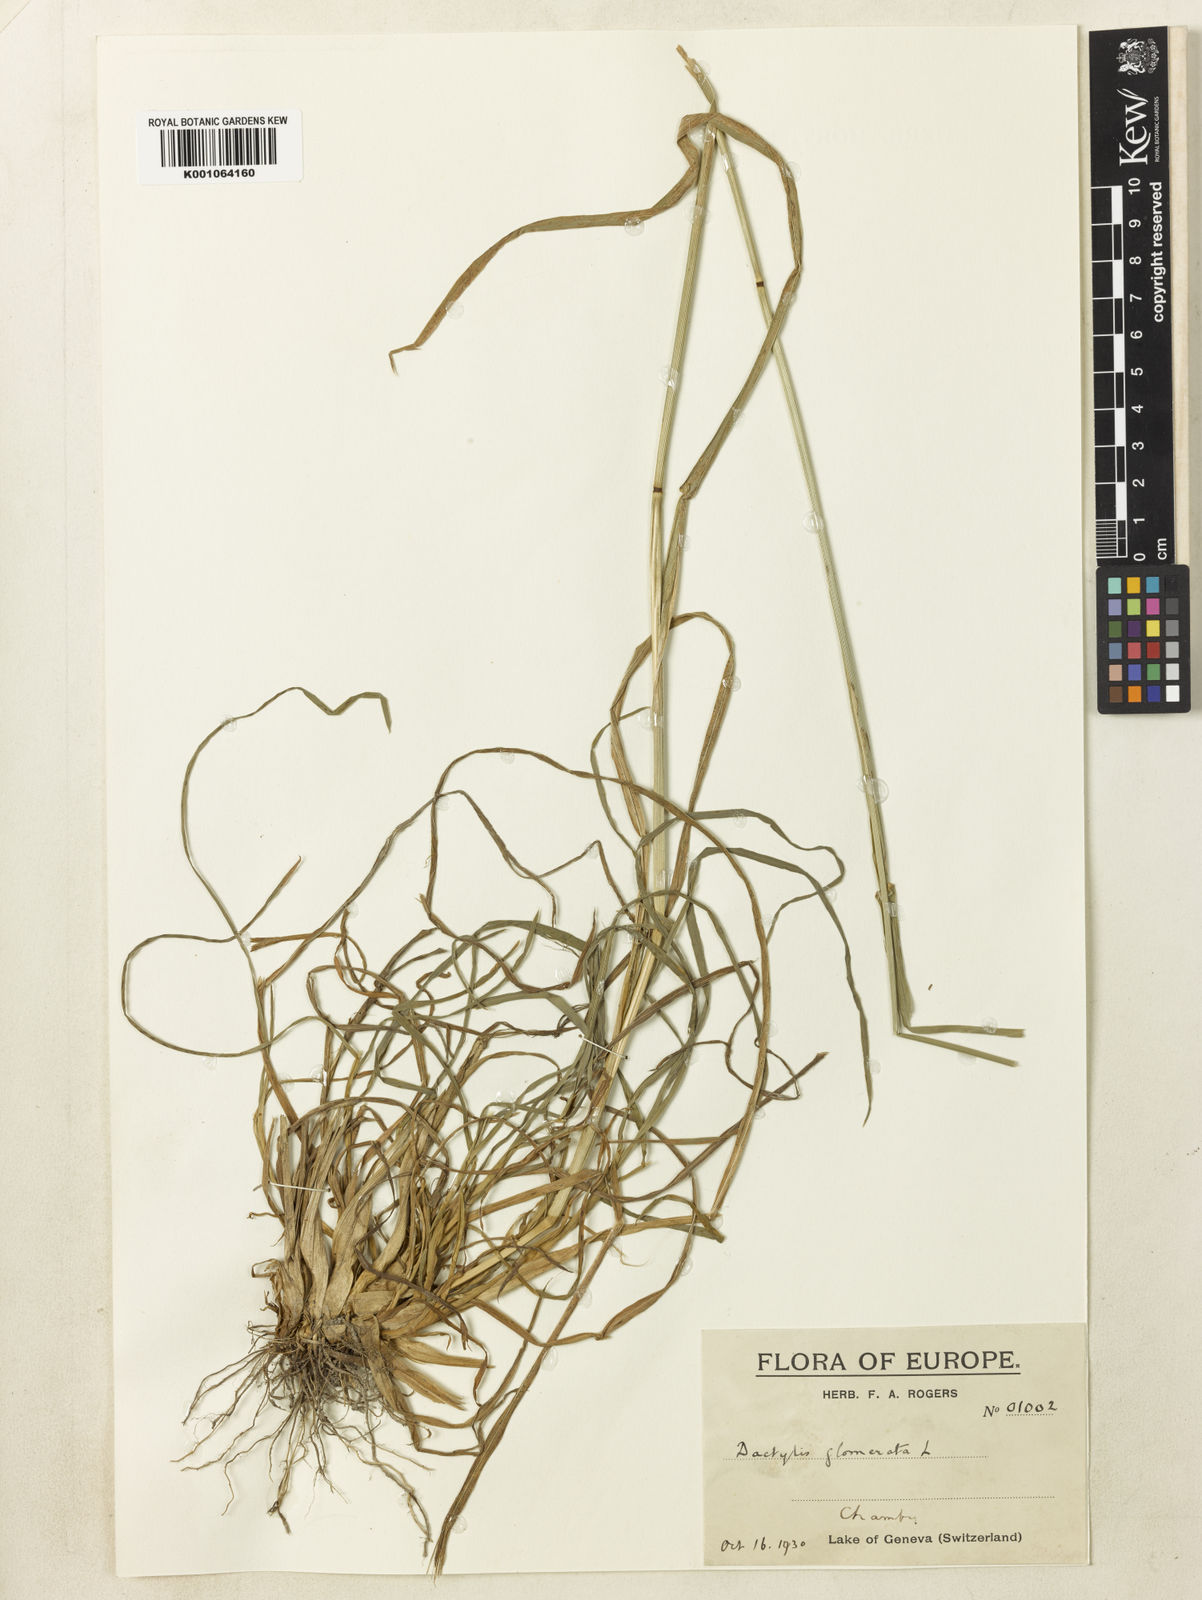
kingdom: Plantae
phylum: Tracheophyta
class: Liliopsida
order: Poales
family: Poaceae
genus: Dactylis
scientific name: Dactylis glomerata
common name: Orchardgrass
